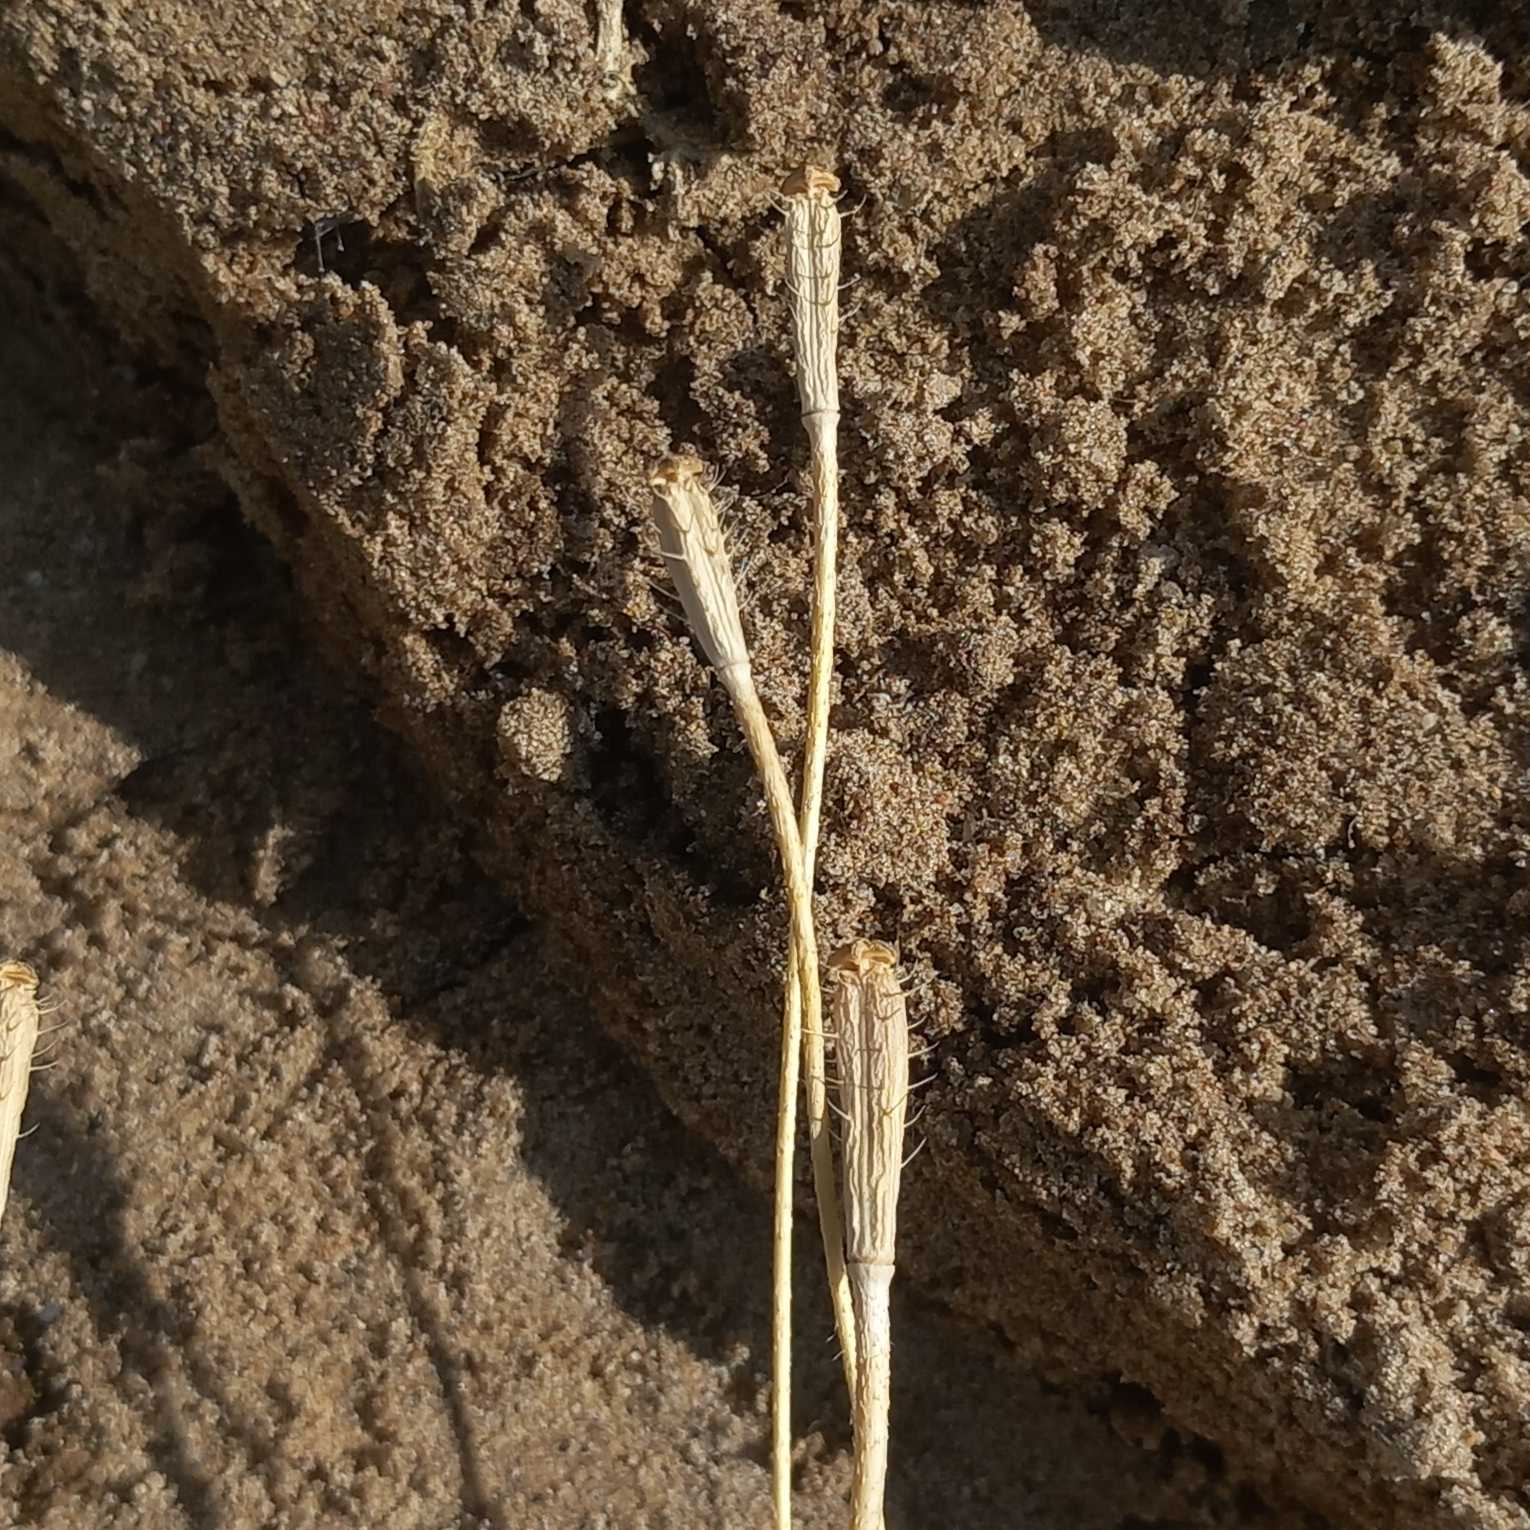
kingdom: Plantae
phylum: Tracheophyta
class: Magnoliopsida
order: Ranunculales
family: Papaveraceae
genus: Roemeria
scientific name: Roemeria argemone
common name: Kølle-valmue
